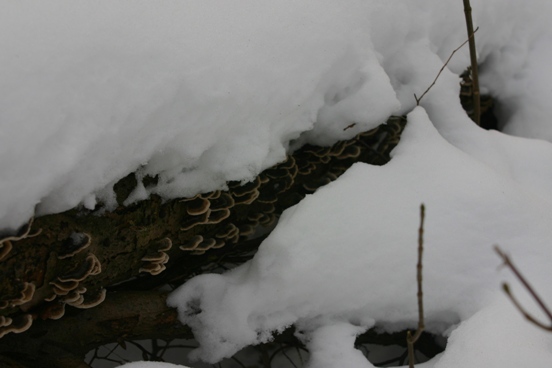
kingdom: Fungi
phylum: Basidiomycota
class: Agaricomycetes
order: Polyporales
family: Polyporaceae
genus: Trametes
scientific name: Trametes versicolor
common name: broget læderporesvamp
